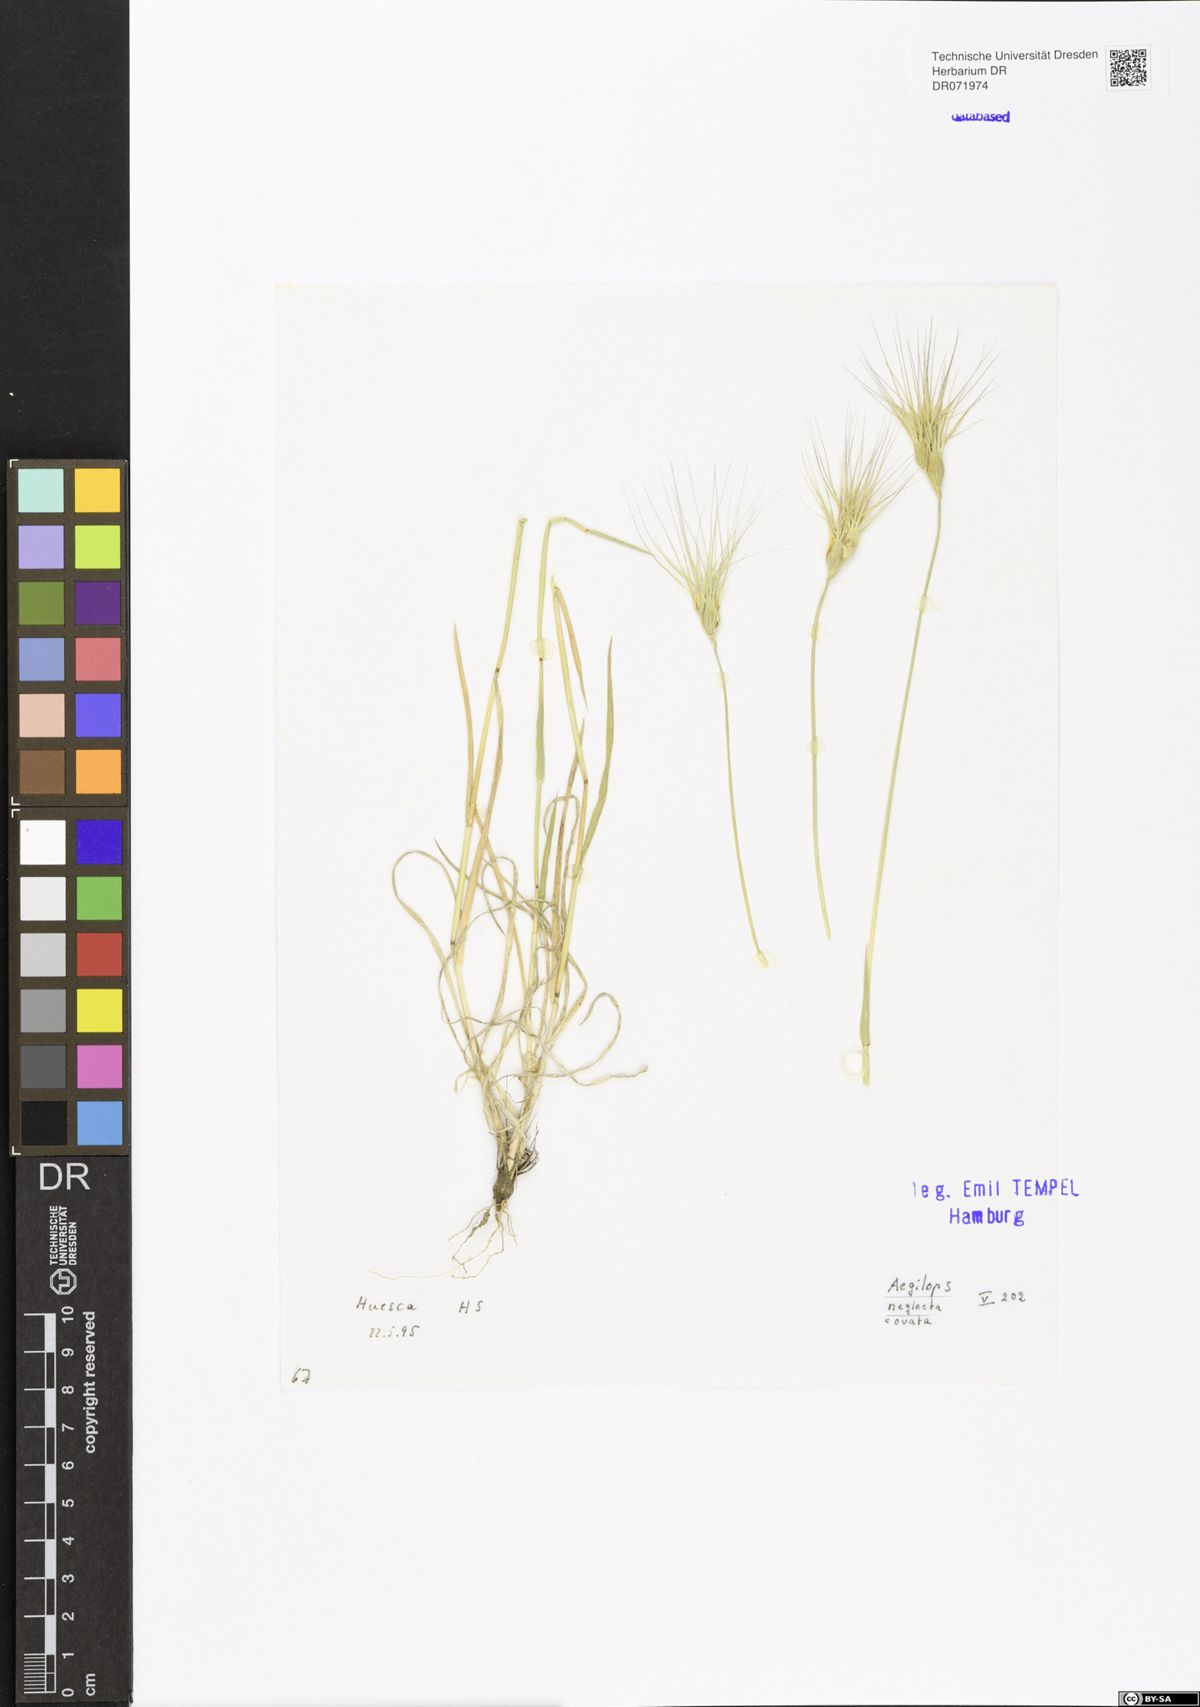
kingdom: Plantae
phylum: Tracheophyta
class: Liliopsida
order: Poales
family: Poaceae
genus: Aegilops
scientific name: Aegilops neglecta
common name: Three-awn goat grass
